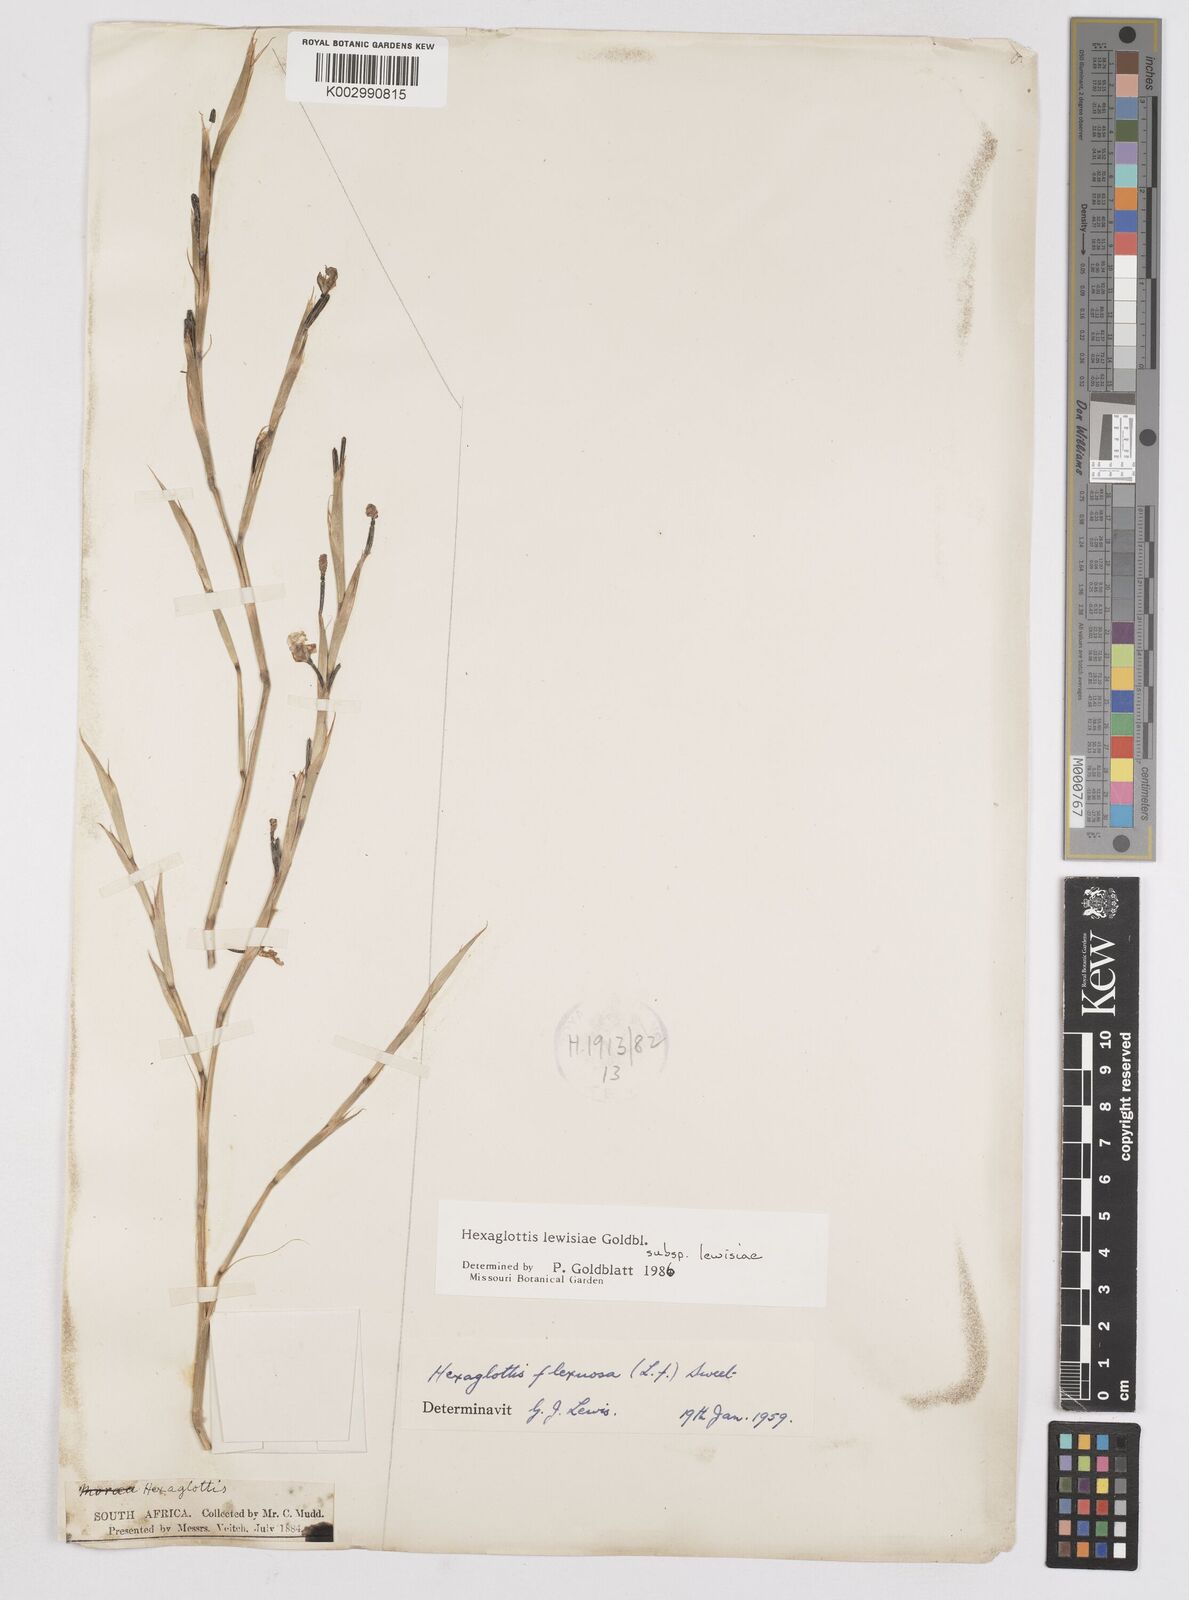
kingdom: Plantae
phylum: Tracheophyta
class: Liliopsida
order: Asparagales
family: Iridaceae
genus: Moraea
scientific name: Moraea lewisiae
